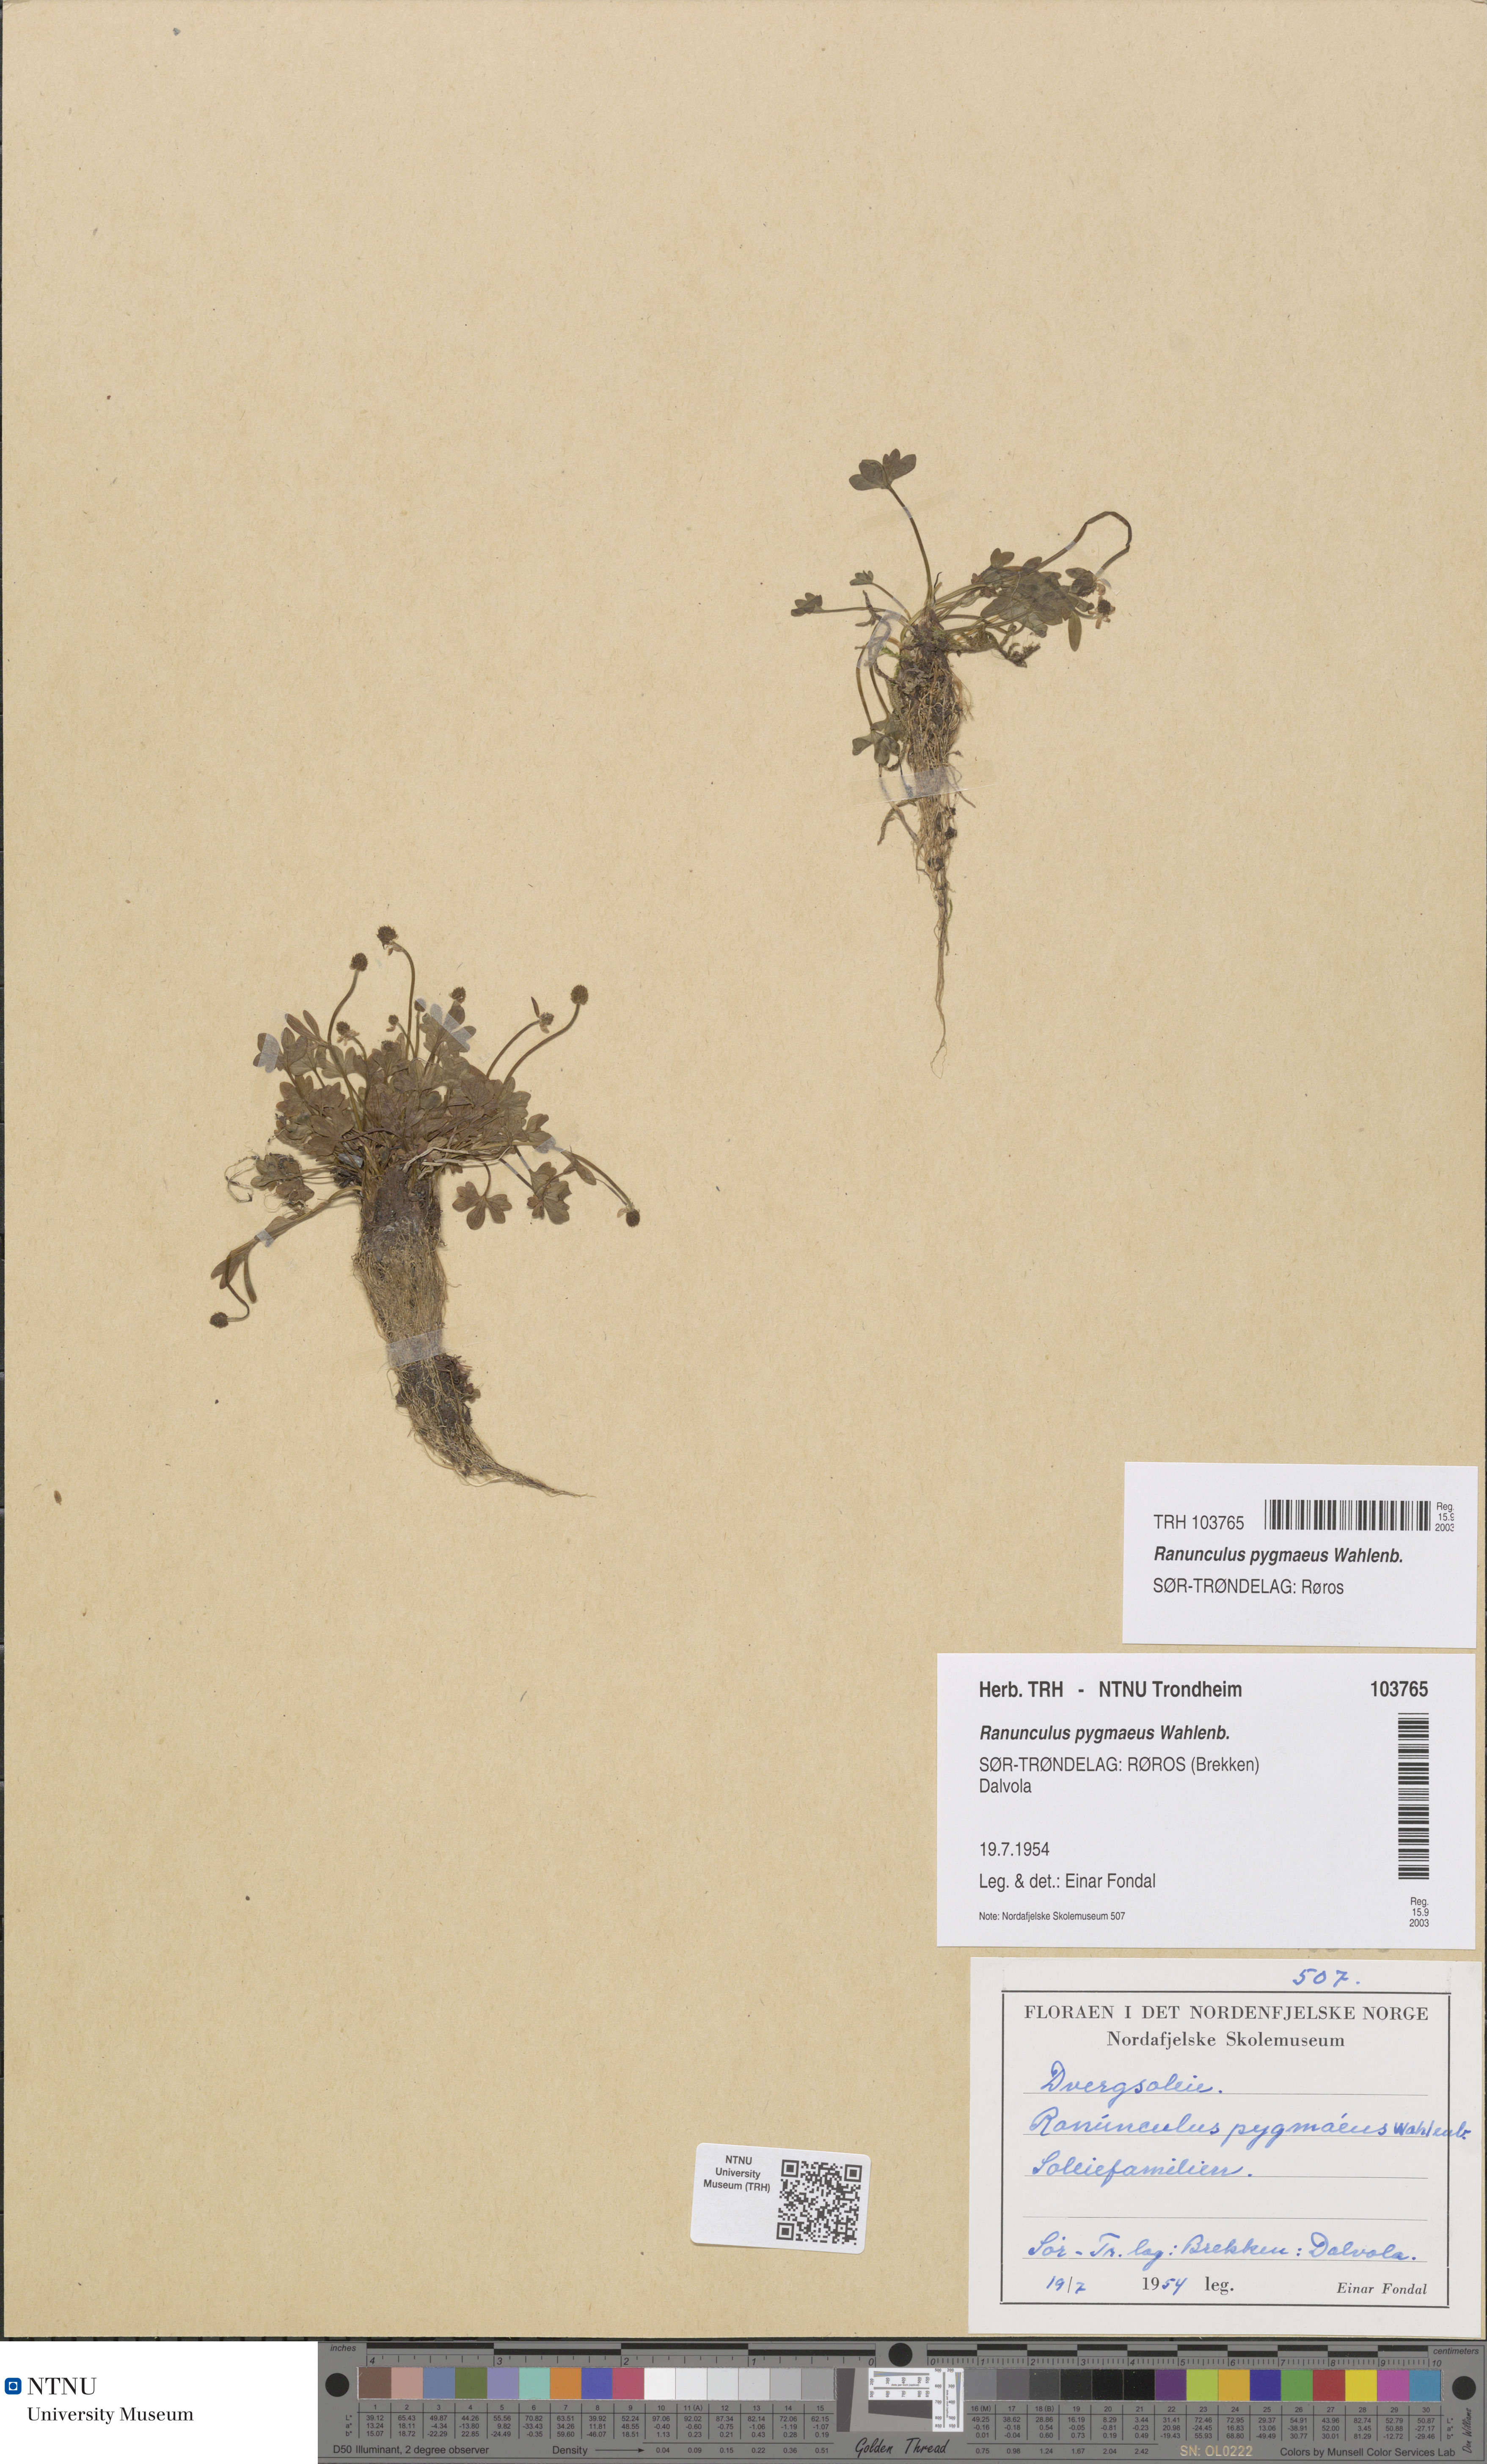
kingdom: Plantae
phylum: Tracheophyta
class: Magnoliopsida
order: Ranunculales
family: Ranunculaceae
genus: Ranunculus
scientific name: Ranunculus pygmaeus
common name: Dwarf buttercup
